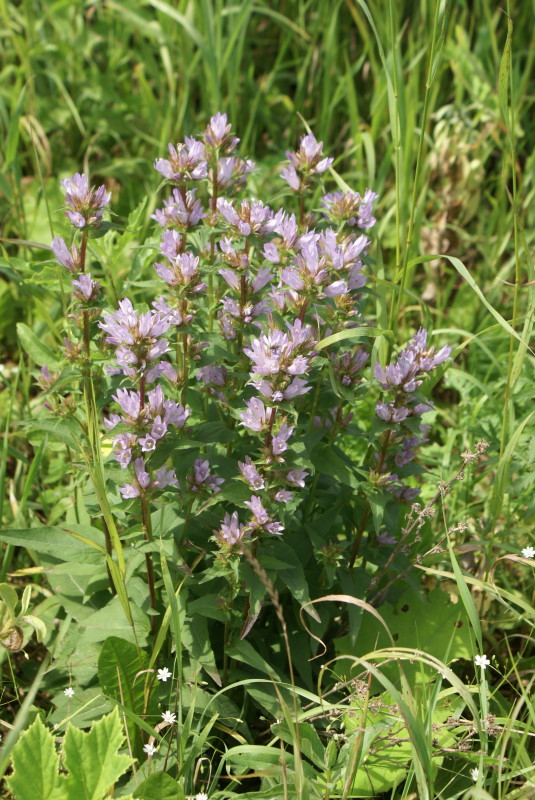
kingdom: Plantae
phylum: Tracheophyta
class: Magnoliopsida
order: Asterales
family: Campanulaceae
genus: Campanula
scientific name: Campanula glomerata
